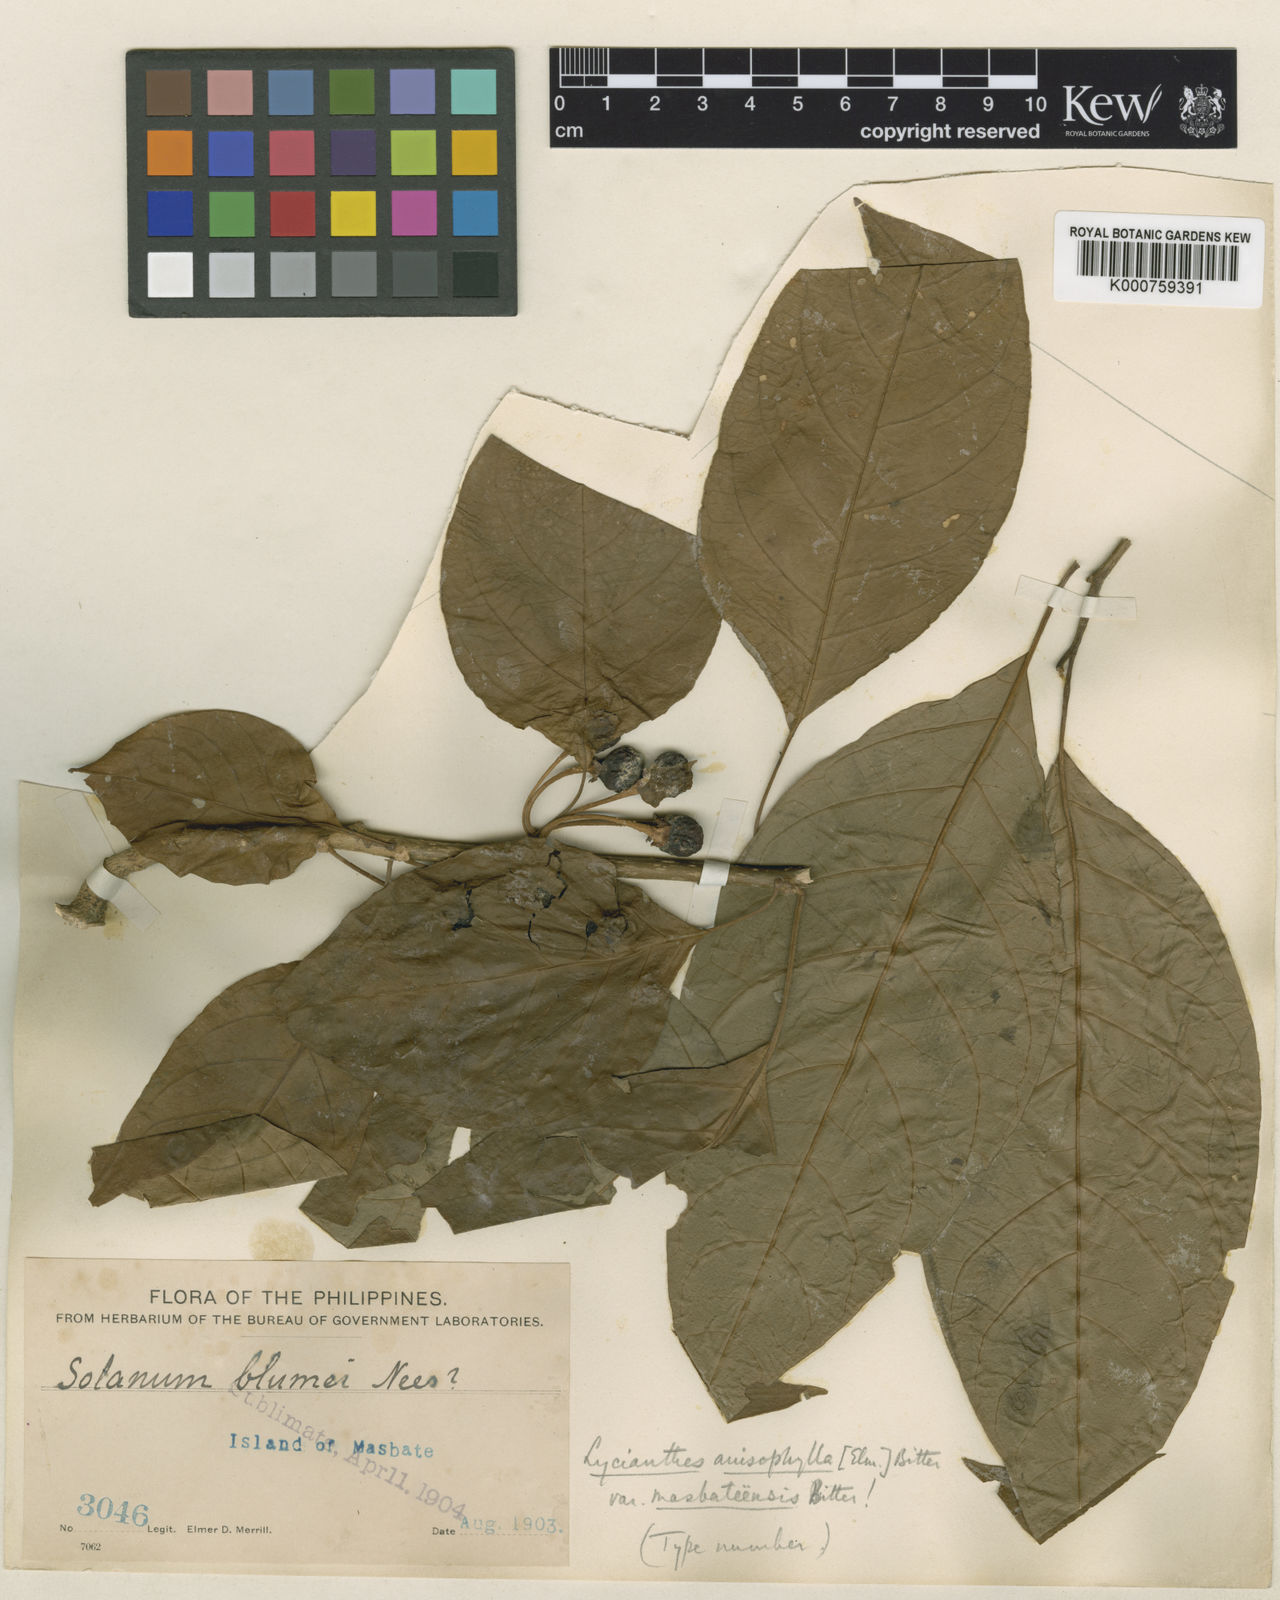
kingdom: Plantae
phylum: Tracheophyta
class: Magnoliopsida
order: Solanales
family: Solanaceae
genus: Lycianthes
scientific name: Lycianthes lagunensis
